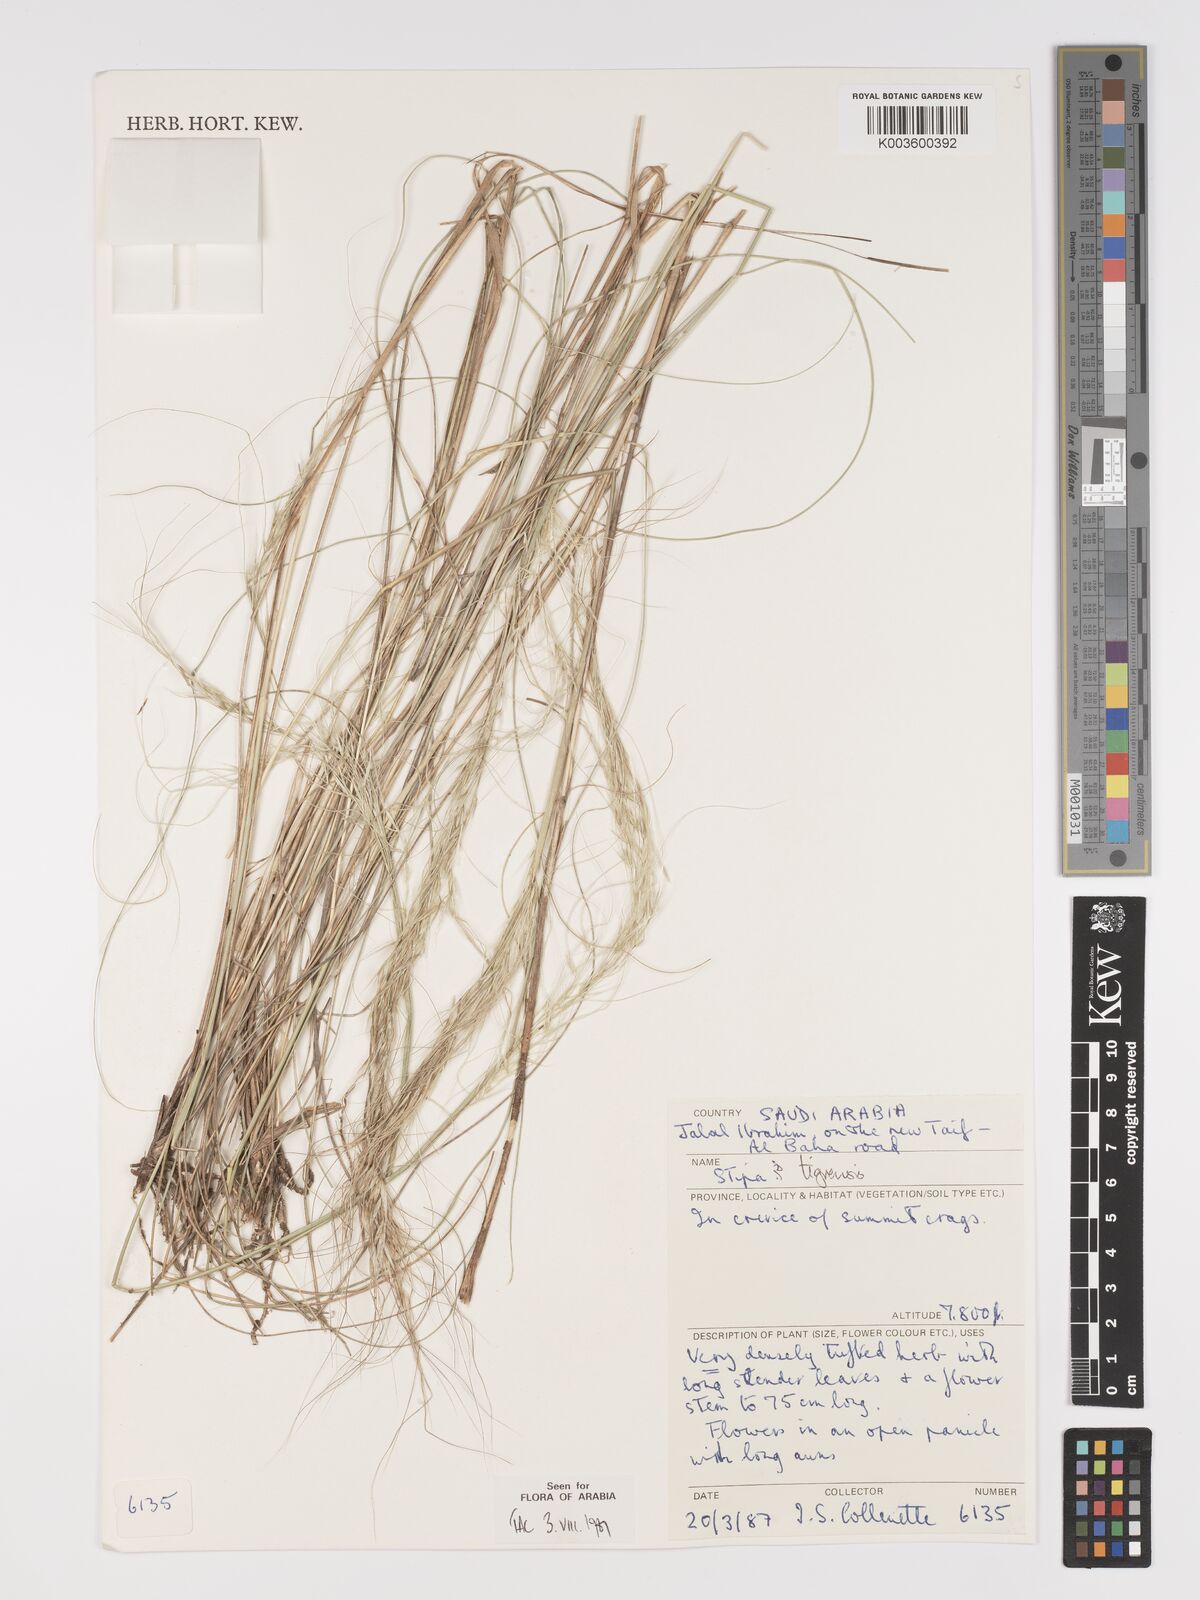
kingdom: Plantae
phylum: Tracheophyta
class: Liliopsida
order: Poales
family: Poaceae
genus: Stipa
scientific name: Stipa tigrensis
